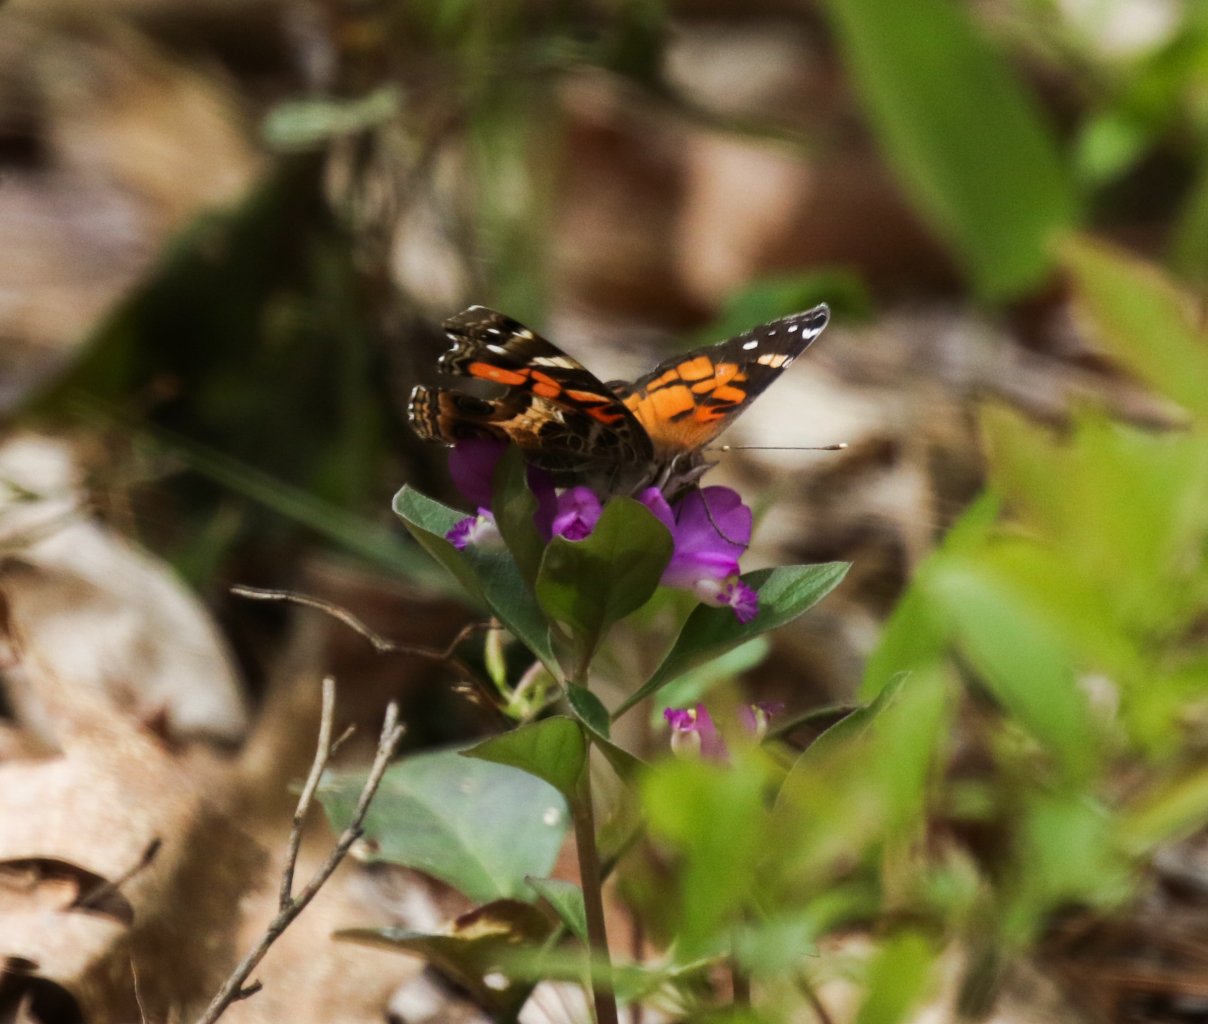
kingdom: Animalia
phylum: Arthropoda
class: Insecta
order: Lepidoptera
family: Nymphalidae
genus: Vanessa
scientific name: Vanessa atalanta
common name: Red Admiral
